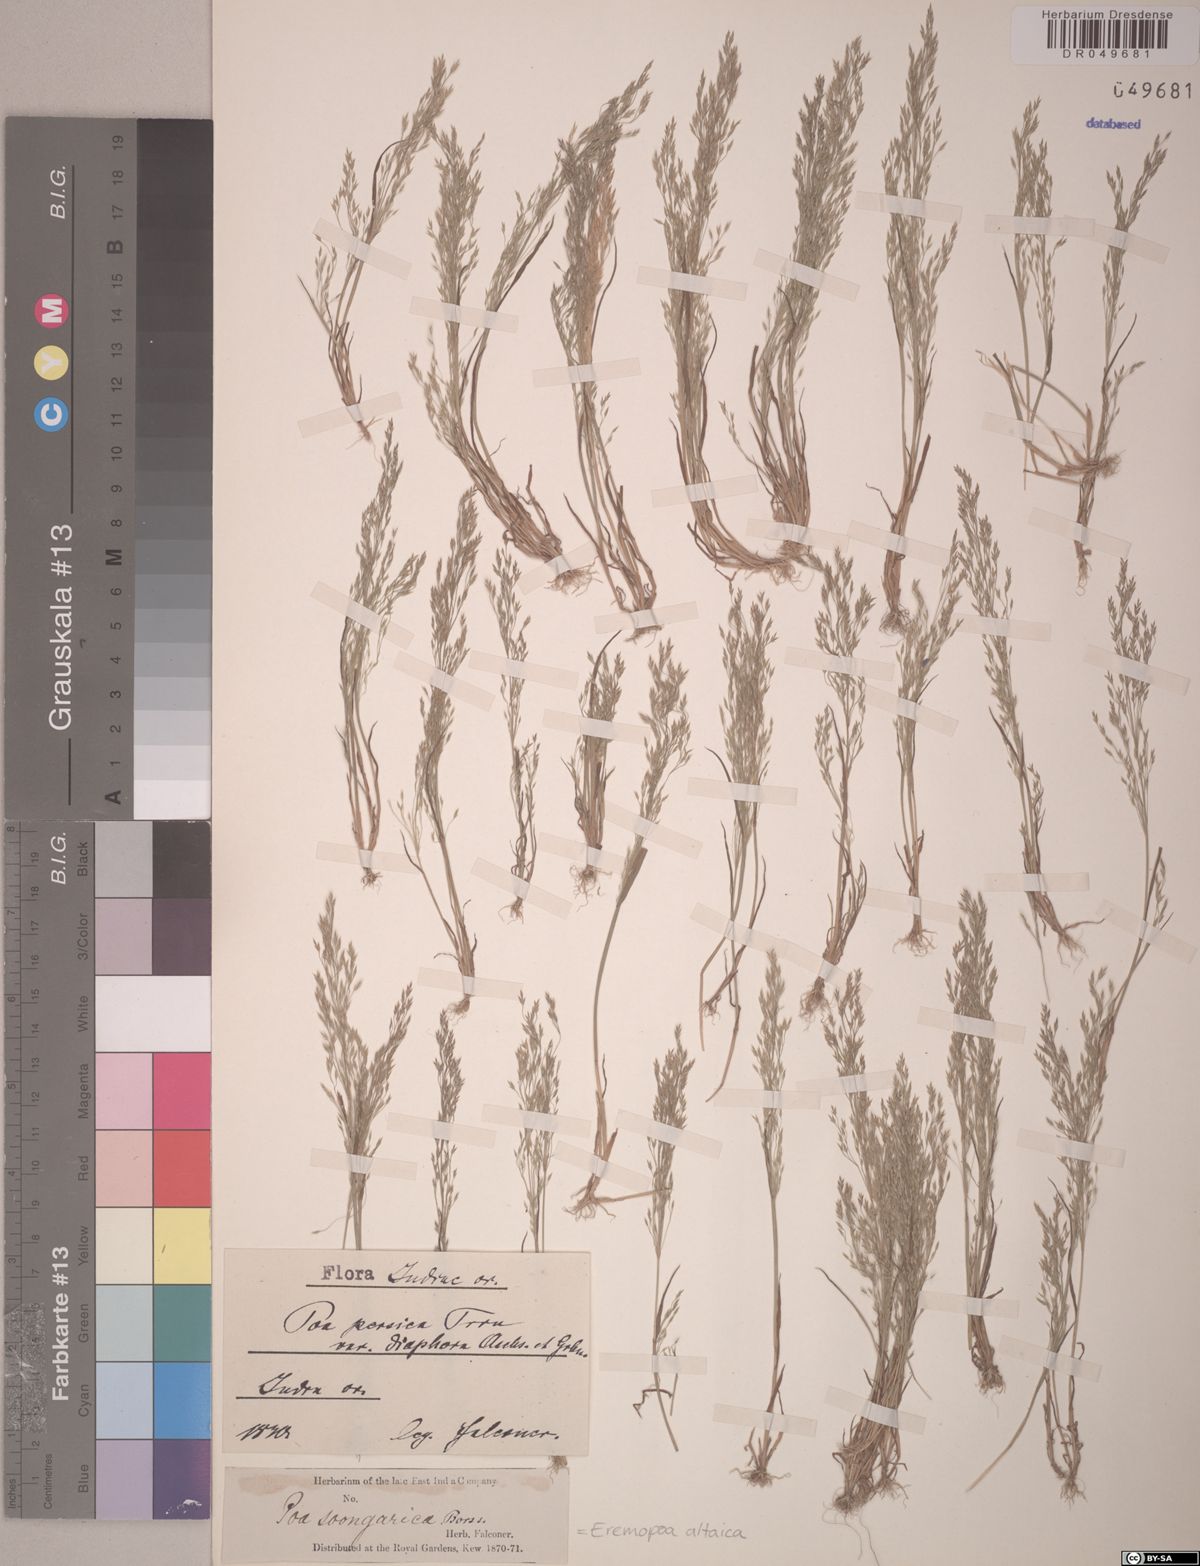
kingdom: Plantae
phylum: Tracheophyta
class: Liliopsida
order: Poales
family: Poaceae
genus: Poa
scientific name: Poa diaphora
